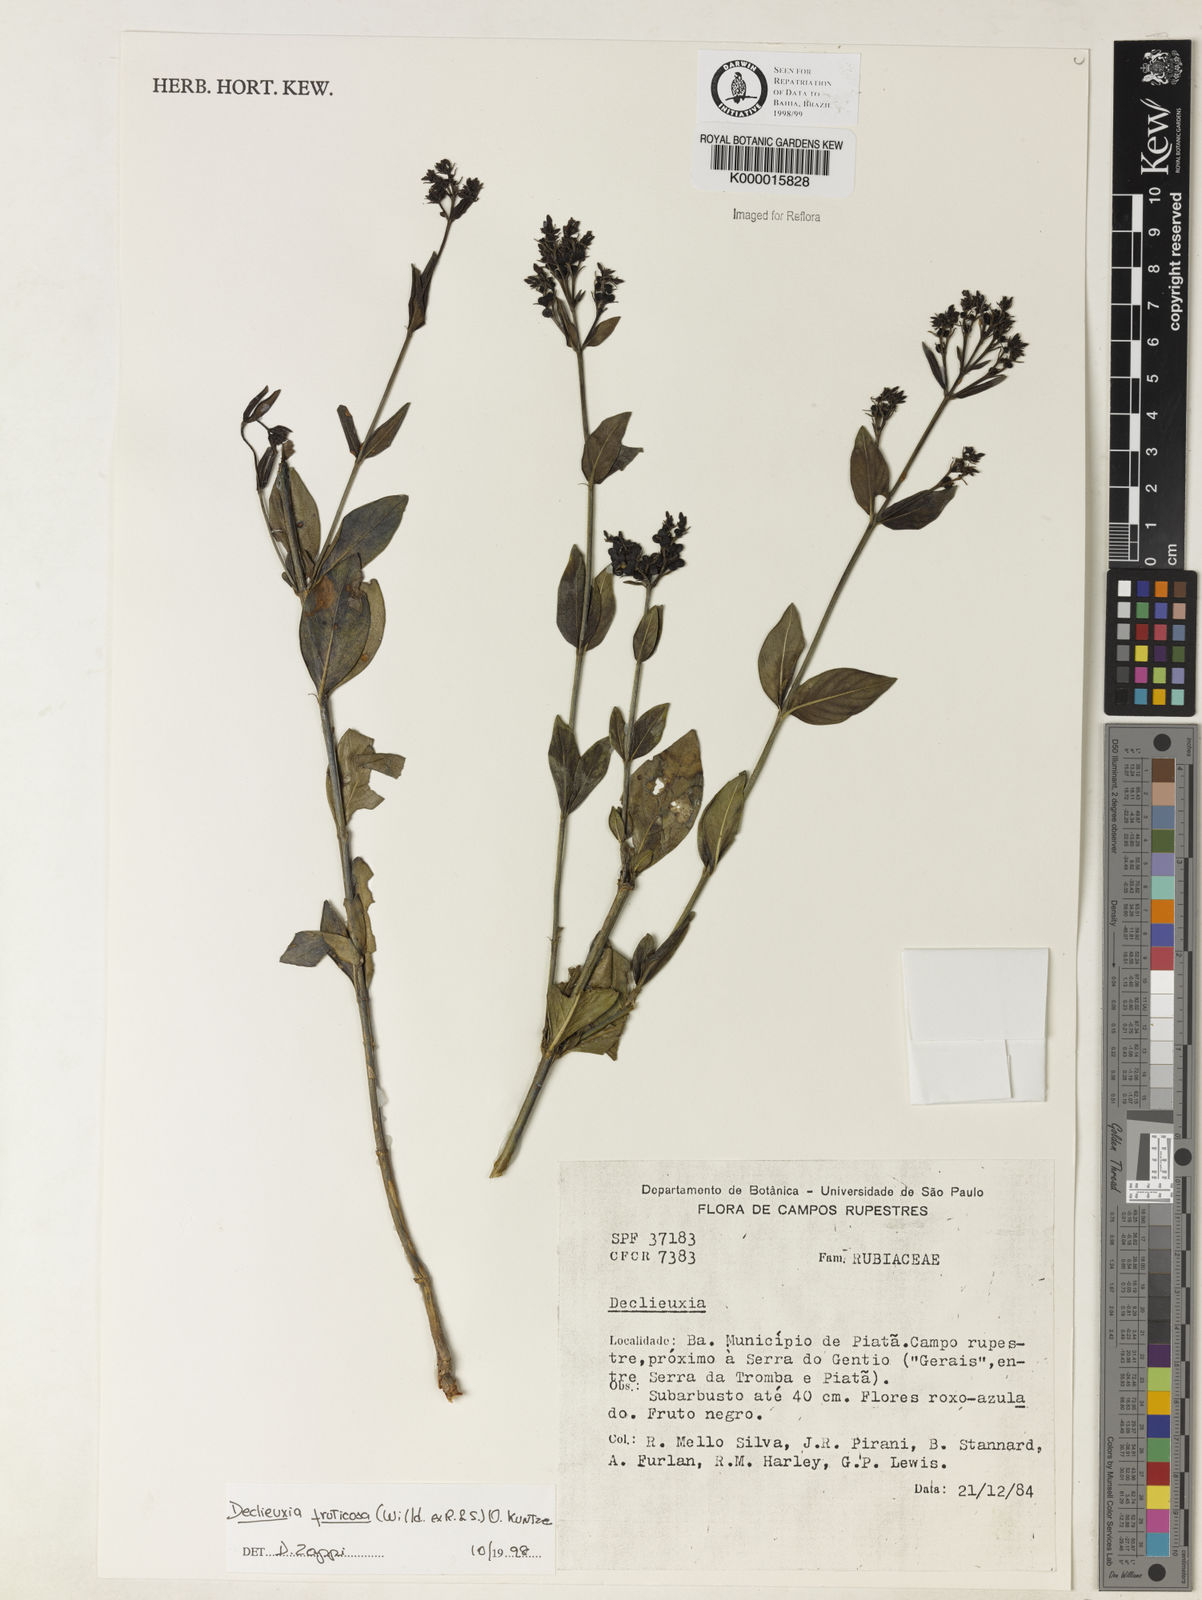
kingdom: Plantae
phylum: Tracheophyta
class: Magnoliopsida
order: Gentianales
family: Rubiaceae
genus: Declieuxia
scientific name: Declieuxia fruticosa
